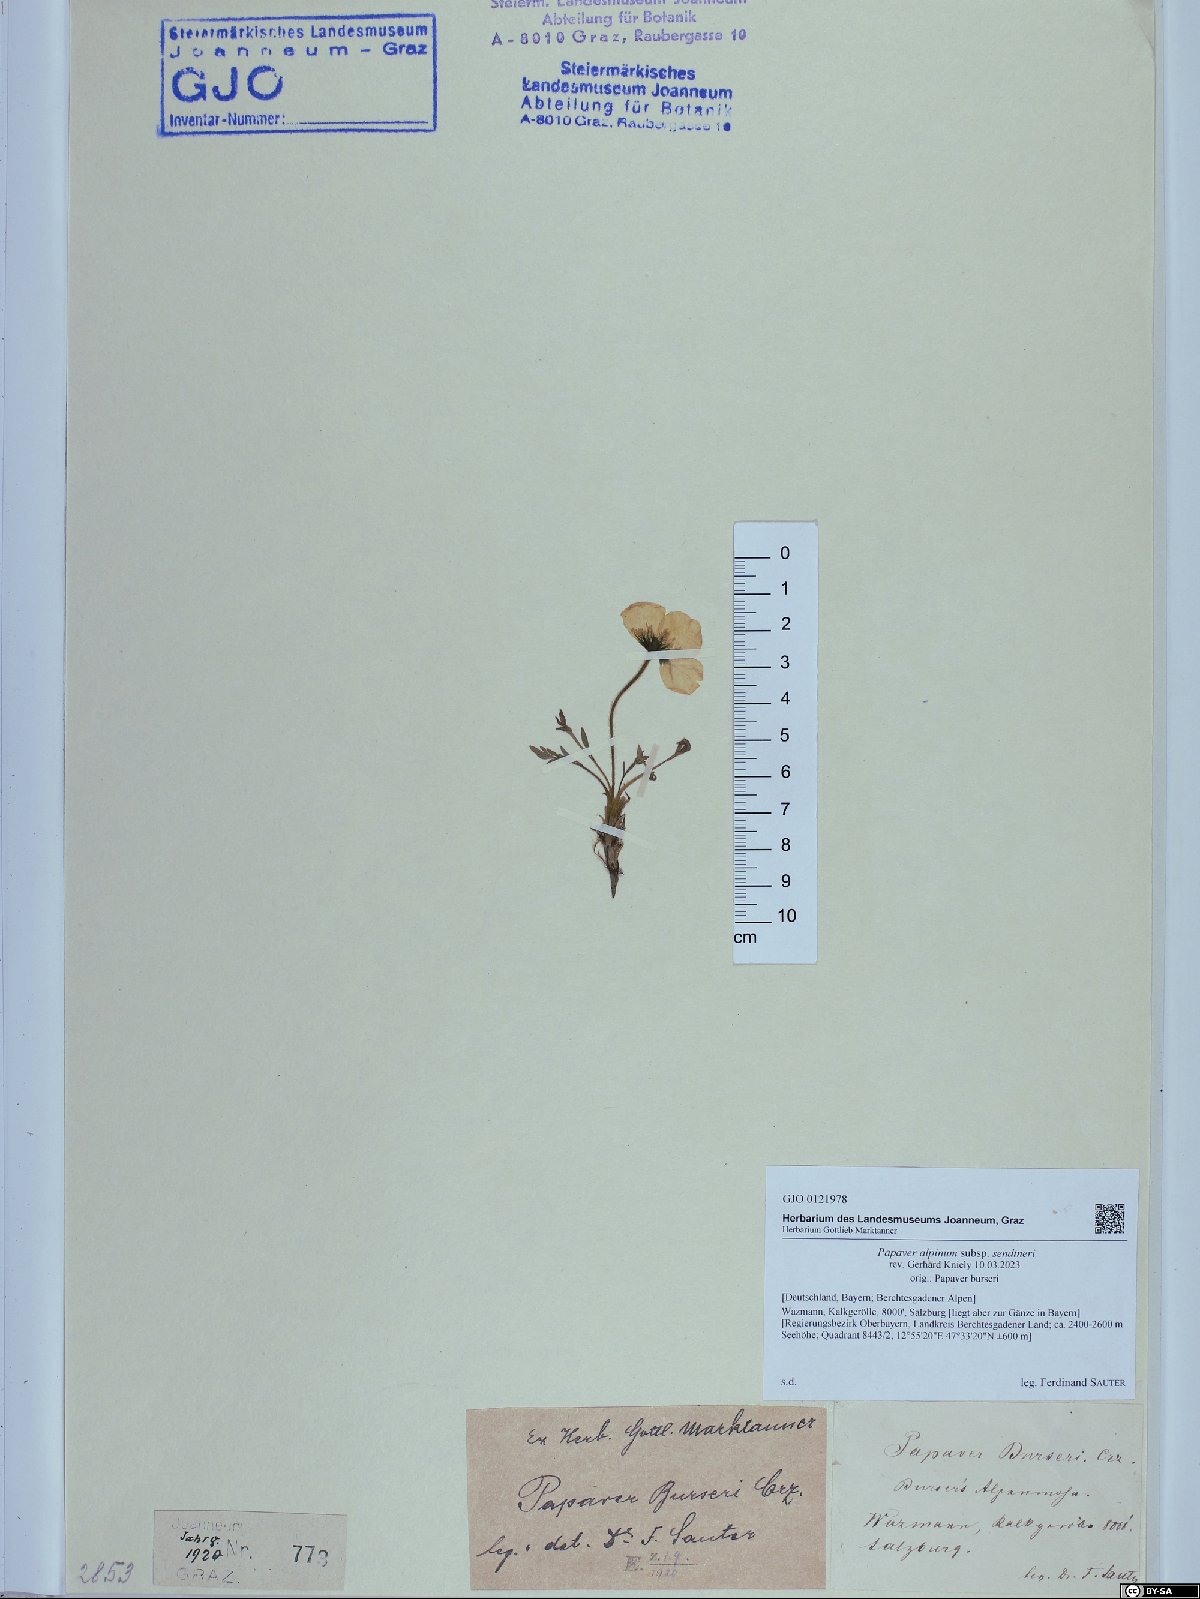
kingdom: Plantae
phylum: Tracheophyta
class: Magnoliopsida
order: Ranunculales
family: Papaveraceae
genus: Papaver
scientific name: Papaver alpinum
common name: Austrian poppy
